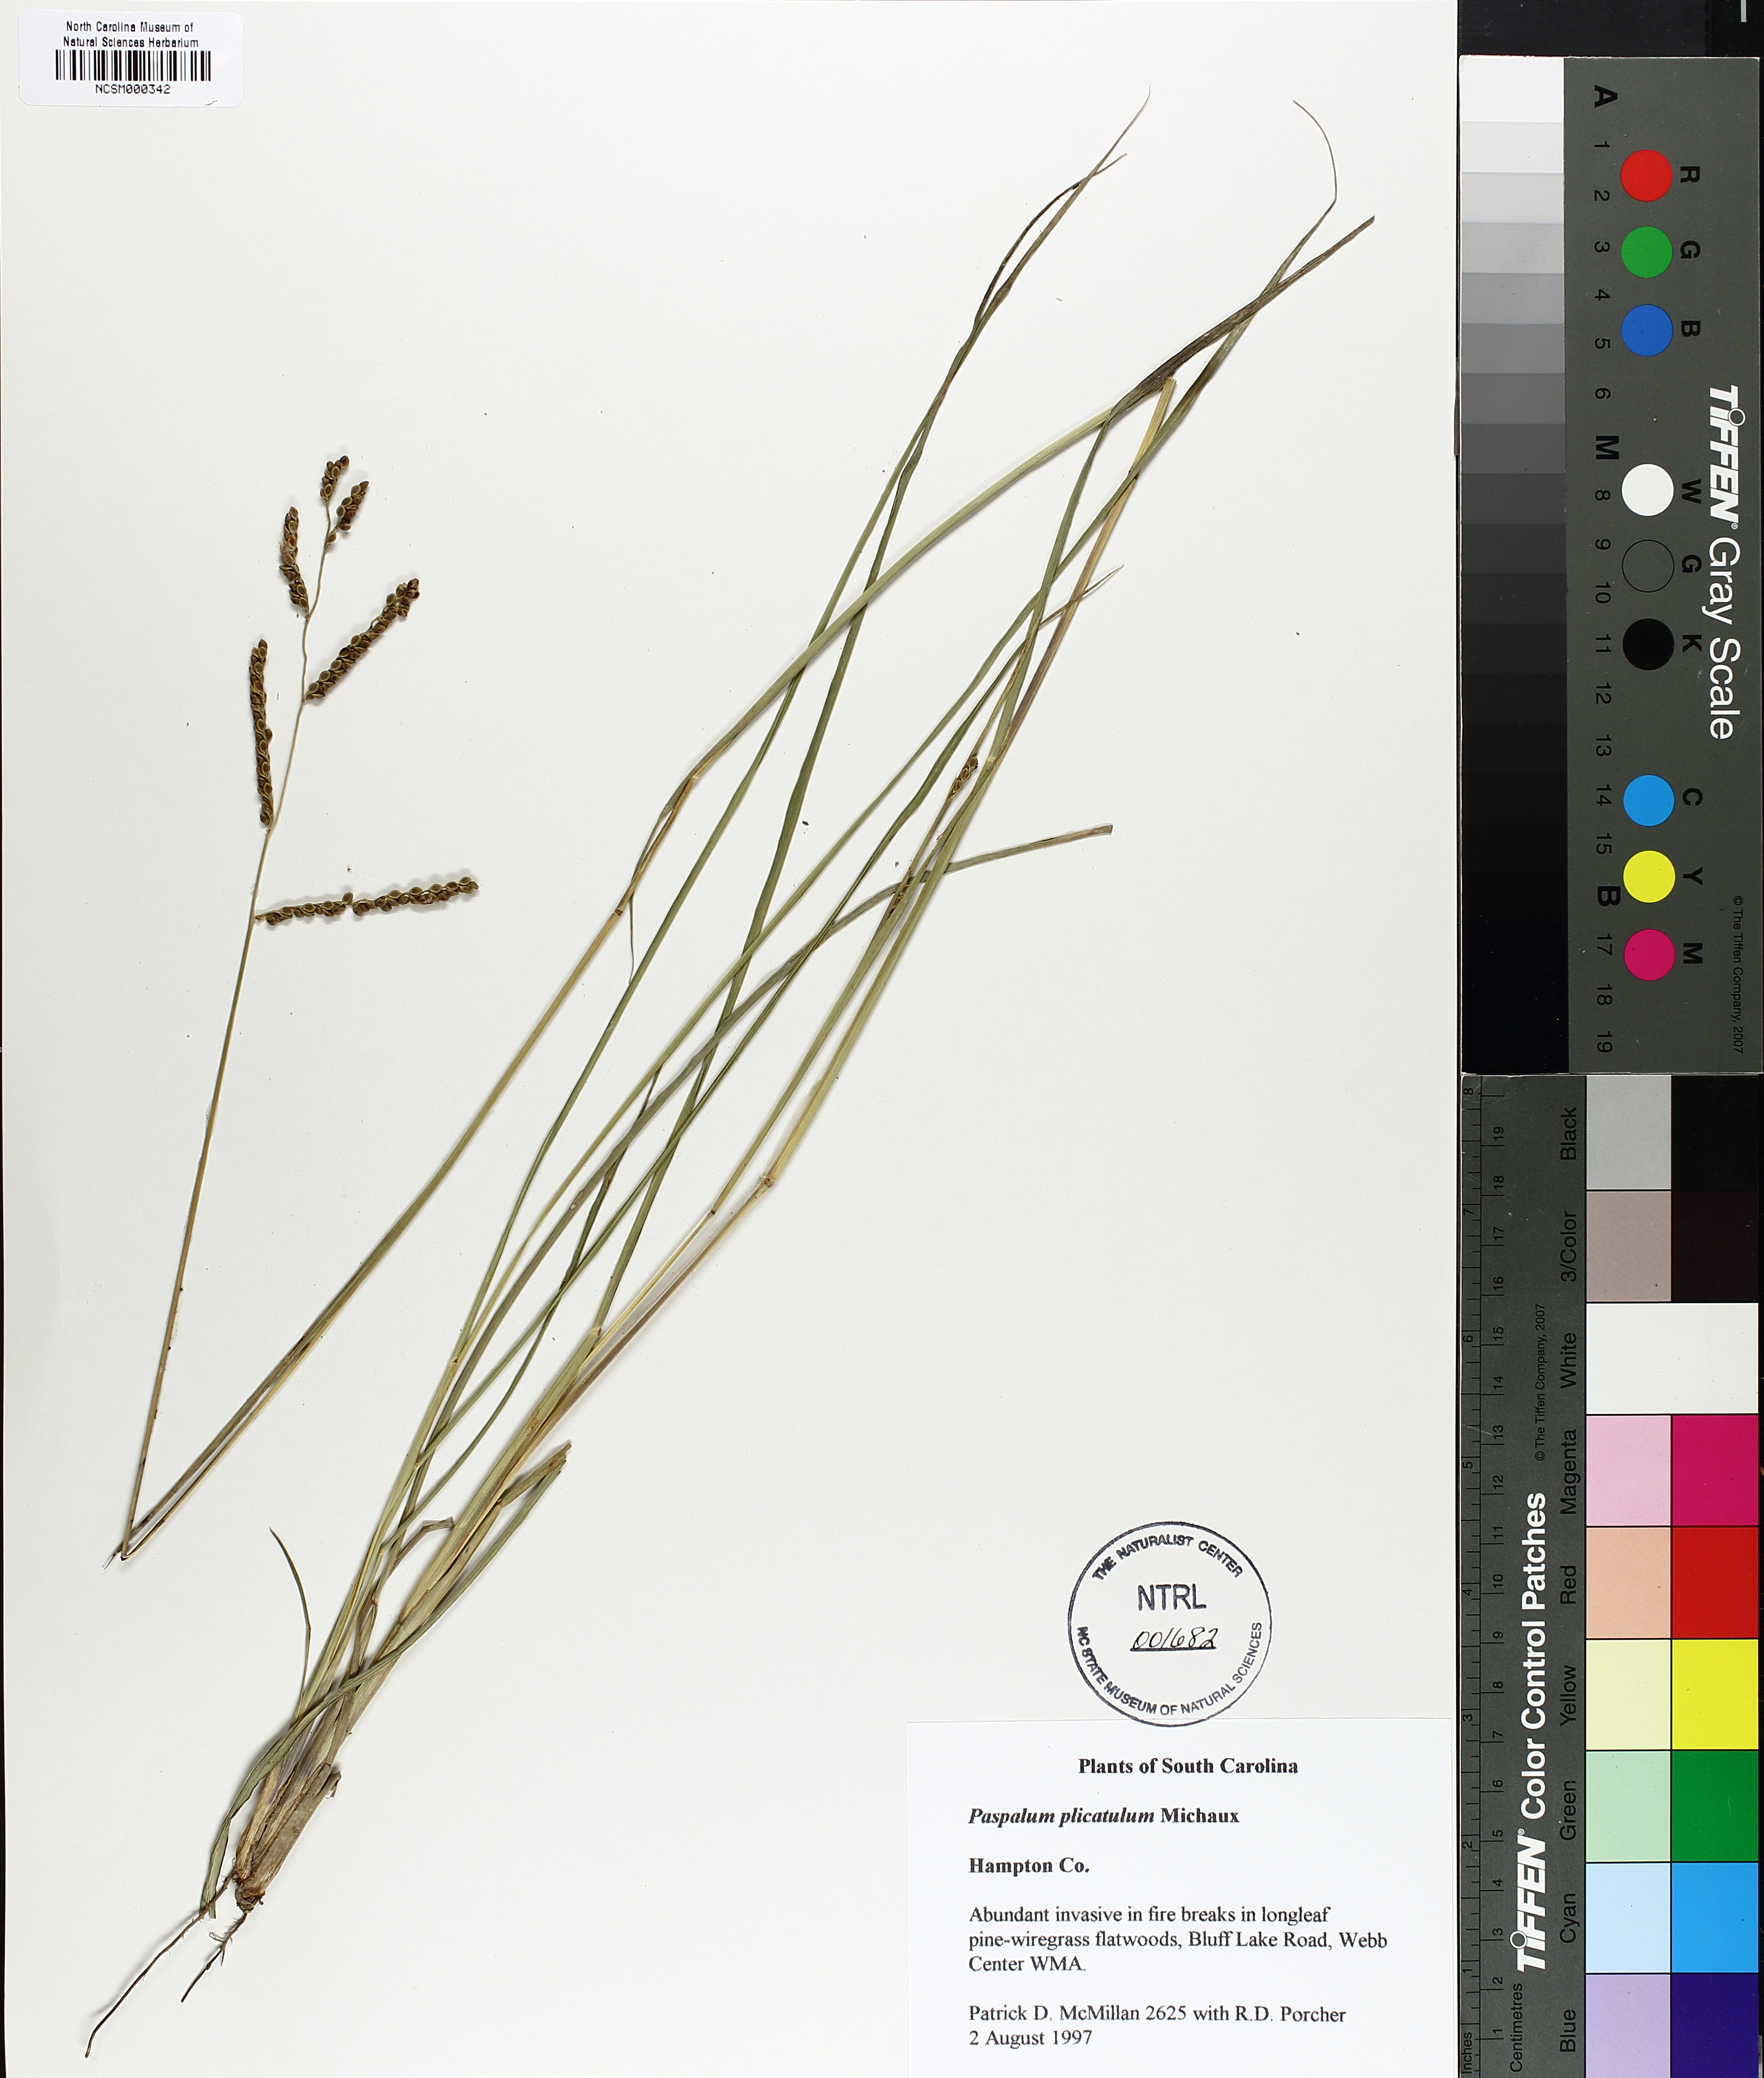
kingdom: Plantae
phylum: Tracheophyta
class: Liliopsida
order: Poales
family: Poaceae
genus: Paspalum
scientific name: Paspalum plicatulum
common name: Top paspalum
